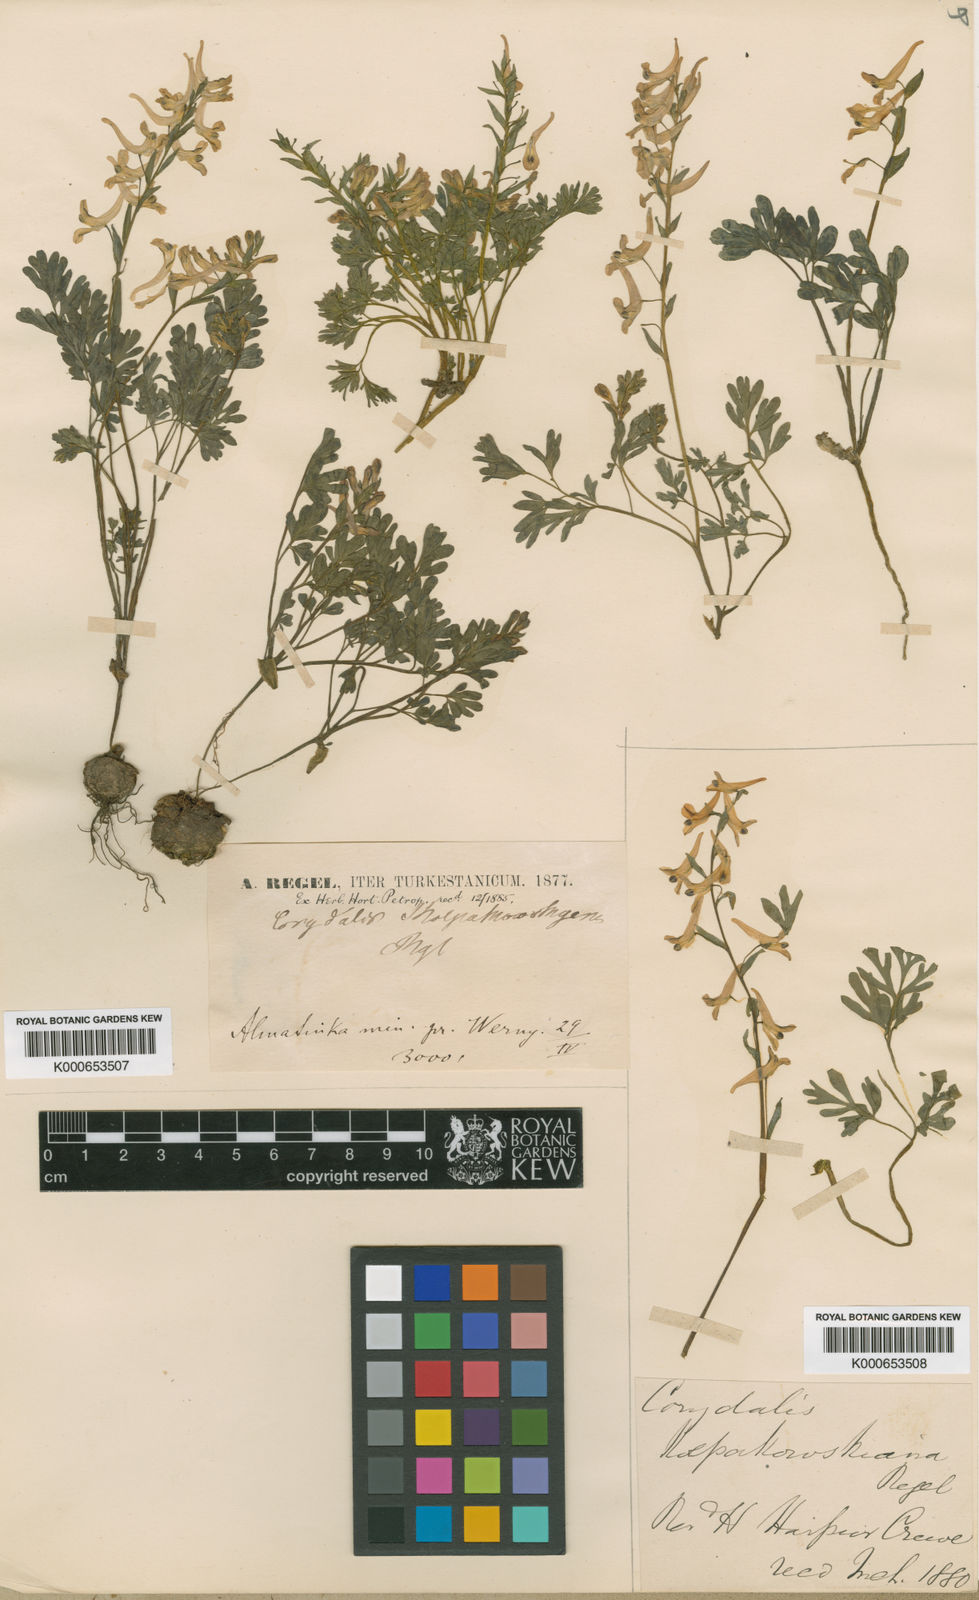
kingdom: Plantae
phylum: Tracheophyta
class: Magnoliopsida
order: Ranunculales
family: Papaveraceae
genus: Corydalis
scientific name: Corydalis glaucescens
